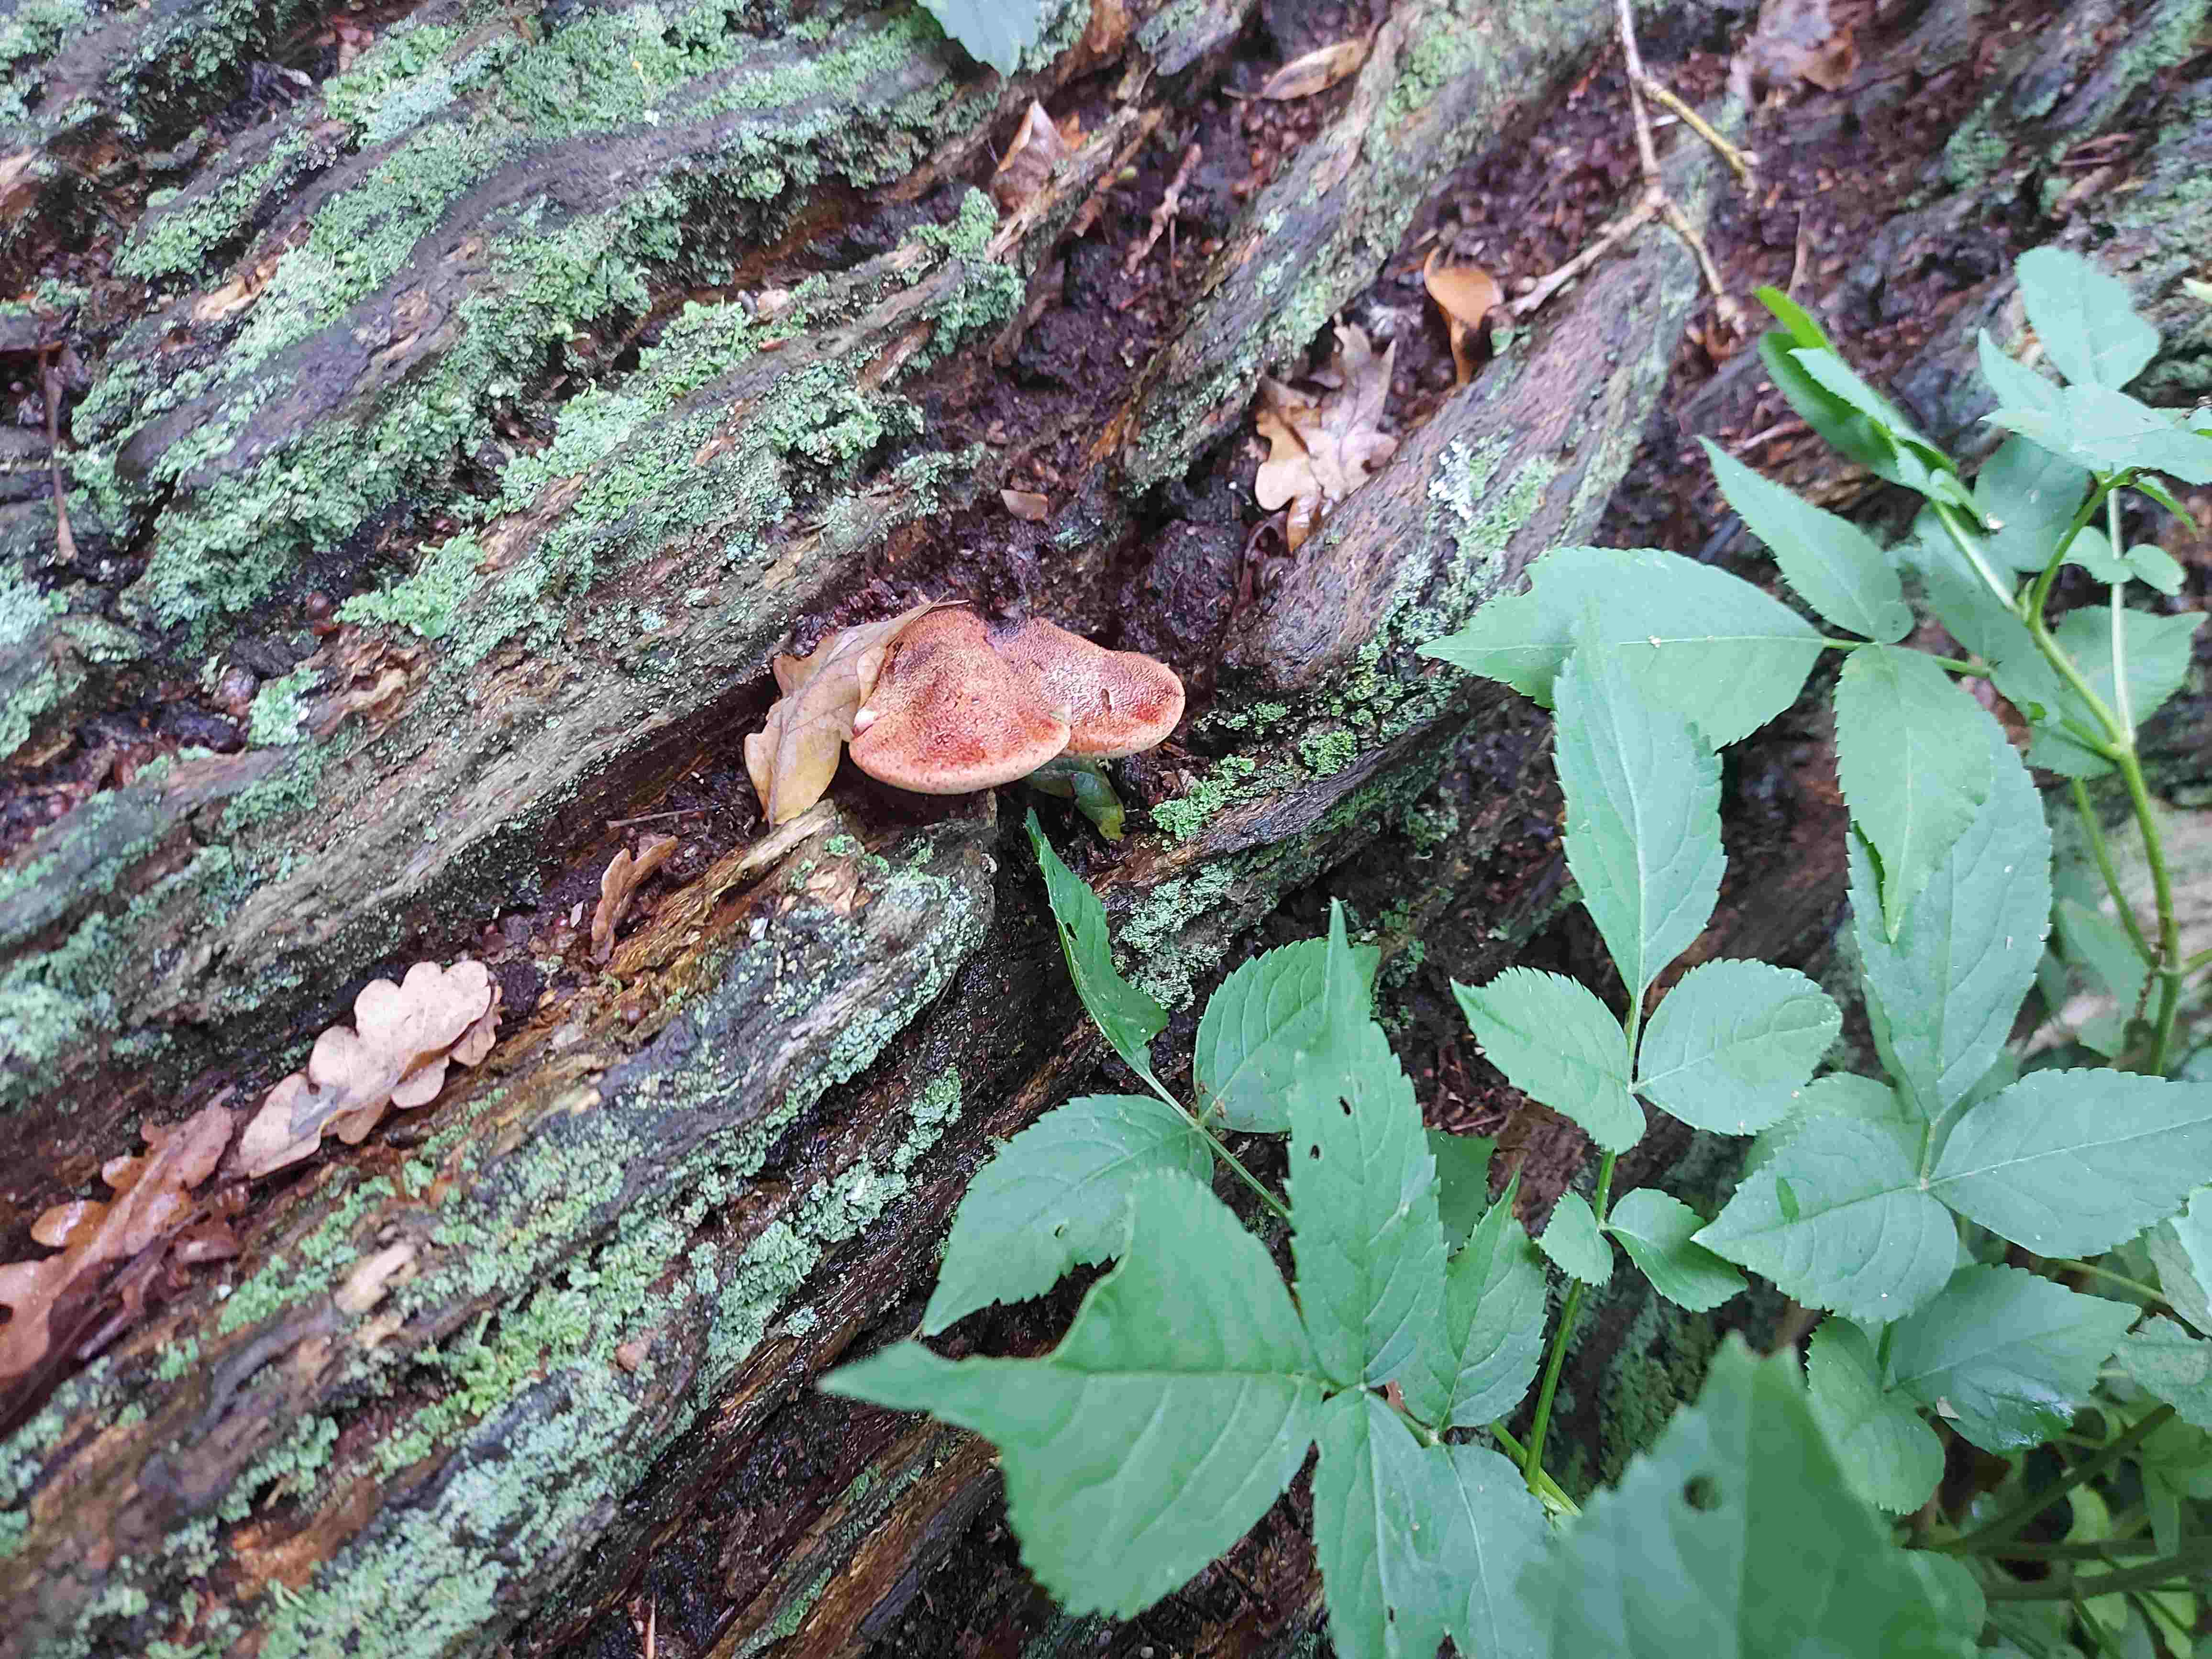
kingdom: Fungi
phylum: Basidiomycota
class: Agaricomycetes
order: Agaricales
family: Fistulinaceae
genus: Fistulina
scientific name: Fistulina hepatica
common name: oksetunge
